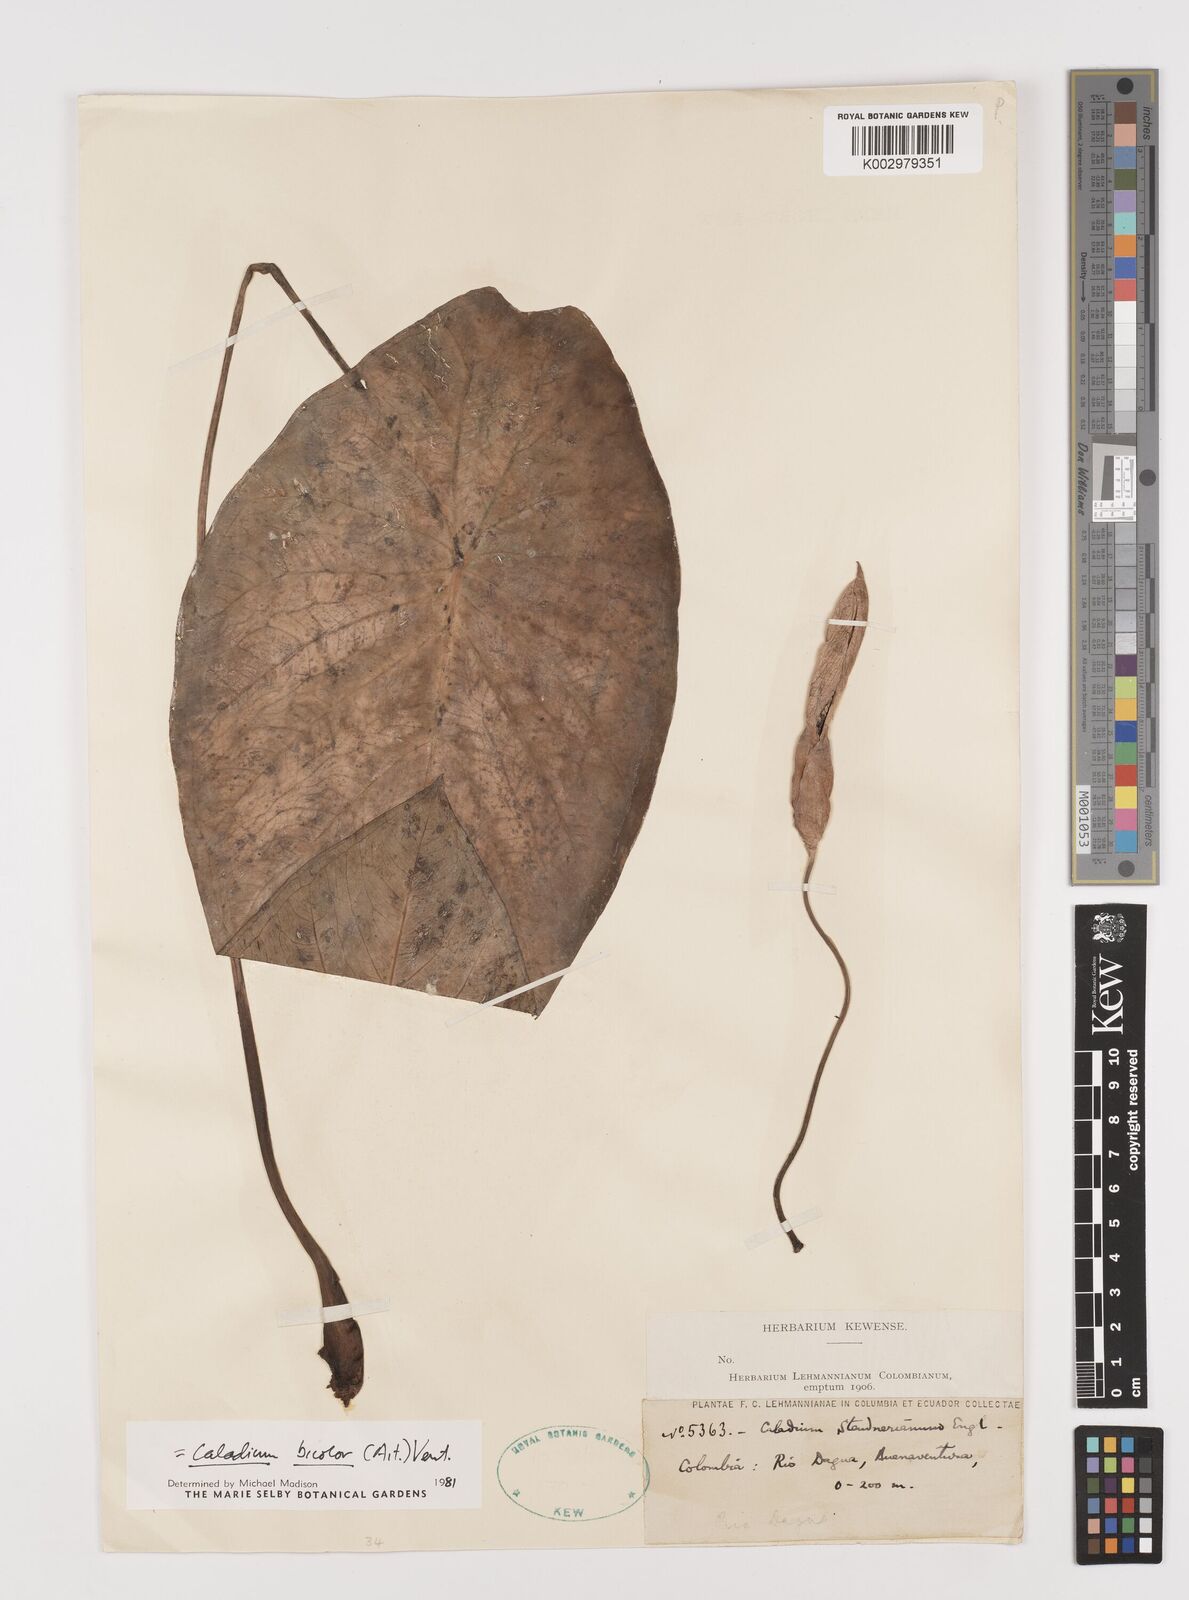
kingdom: Plantae
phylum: Tracheophyta
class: Liliopsida
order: Alismatales
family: Araceae
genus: Caladium
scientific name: Caladium bicolor
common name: Artist's pallet
